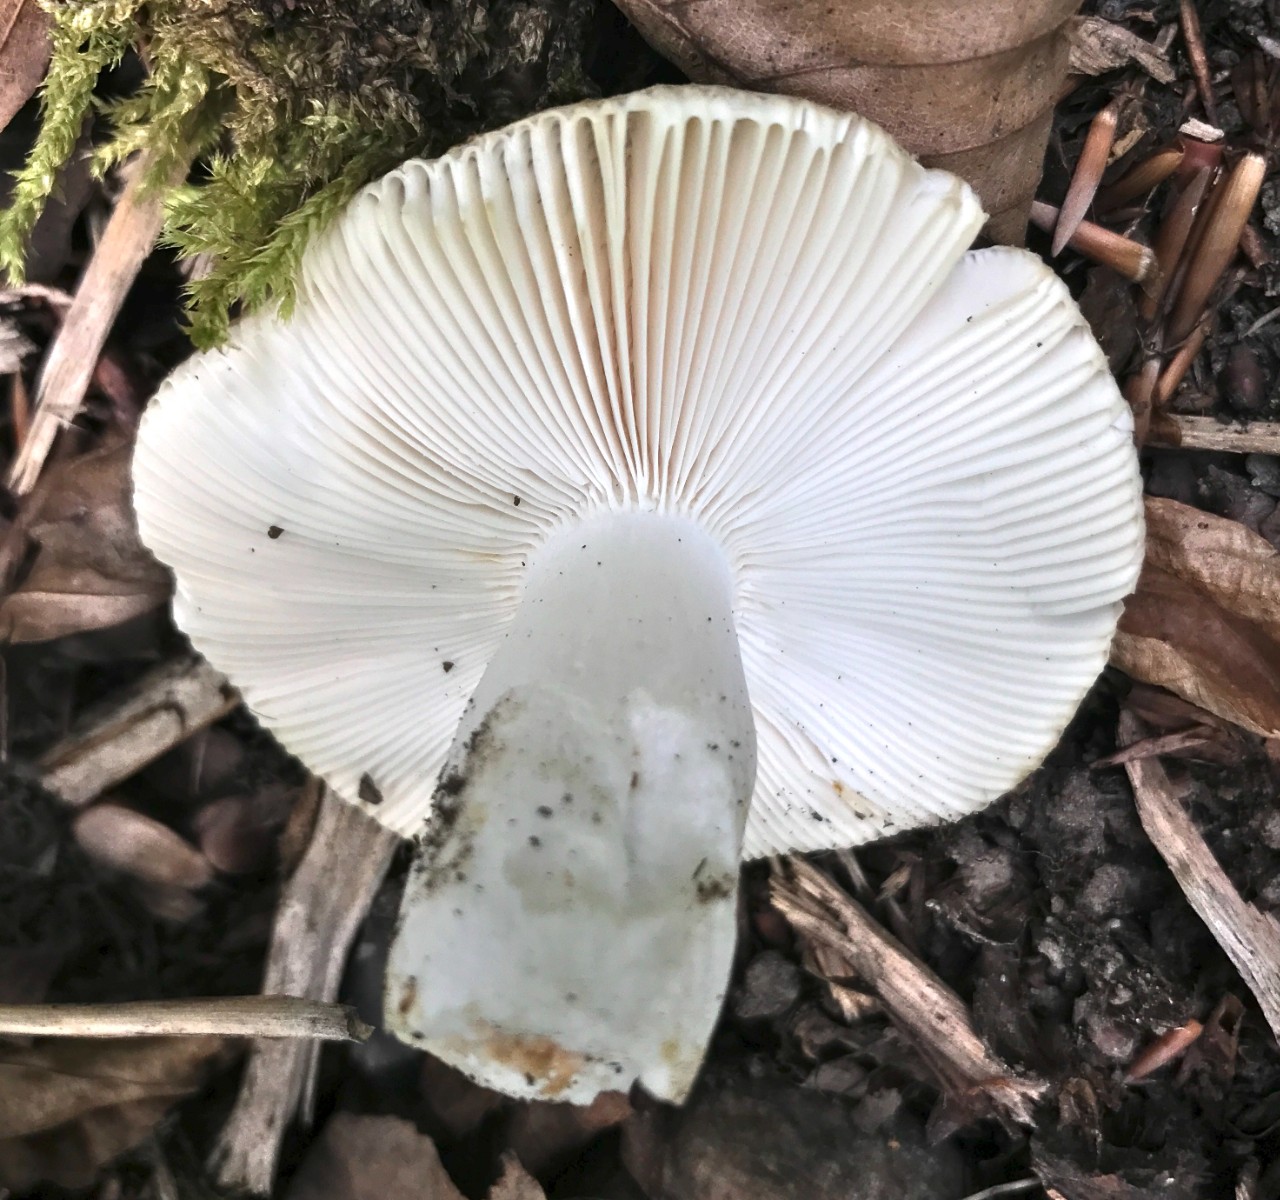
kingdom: Fungi
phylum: Basidiomycota
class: Agaricomycetes
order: Russulales
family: Russulaceae
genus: Russula
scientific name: Russula heterophylla
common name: gaffelbladet skørhat
